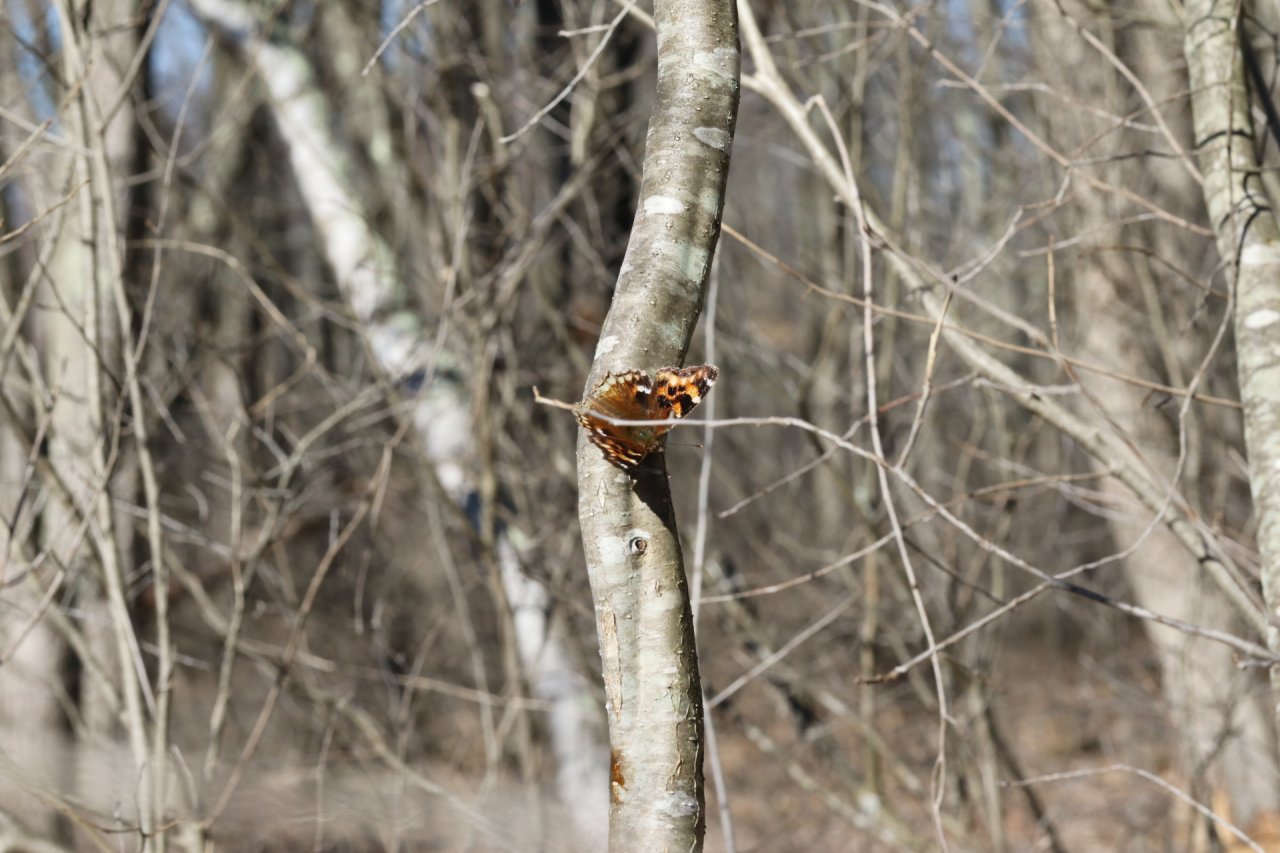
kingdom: Animalia
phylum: Arthropoda
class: Insecta
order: Lepidoptera
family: Nymphalidae
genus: Polygonia
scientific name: Polygonia vaualbum
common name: Compton Tortoiseshell
